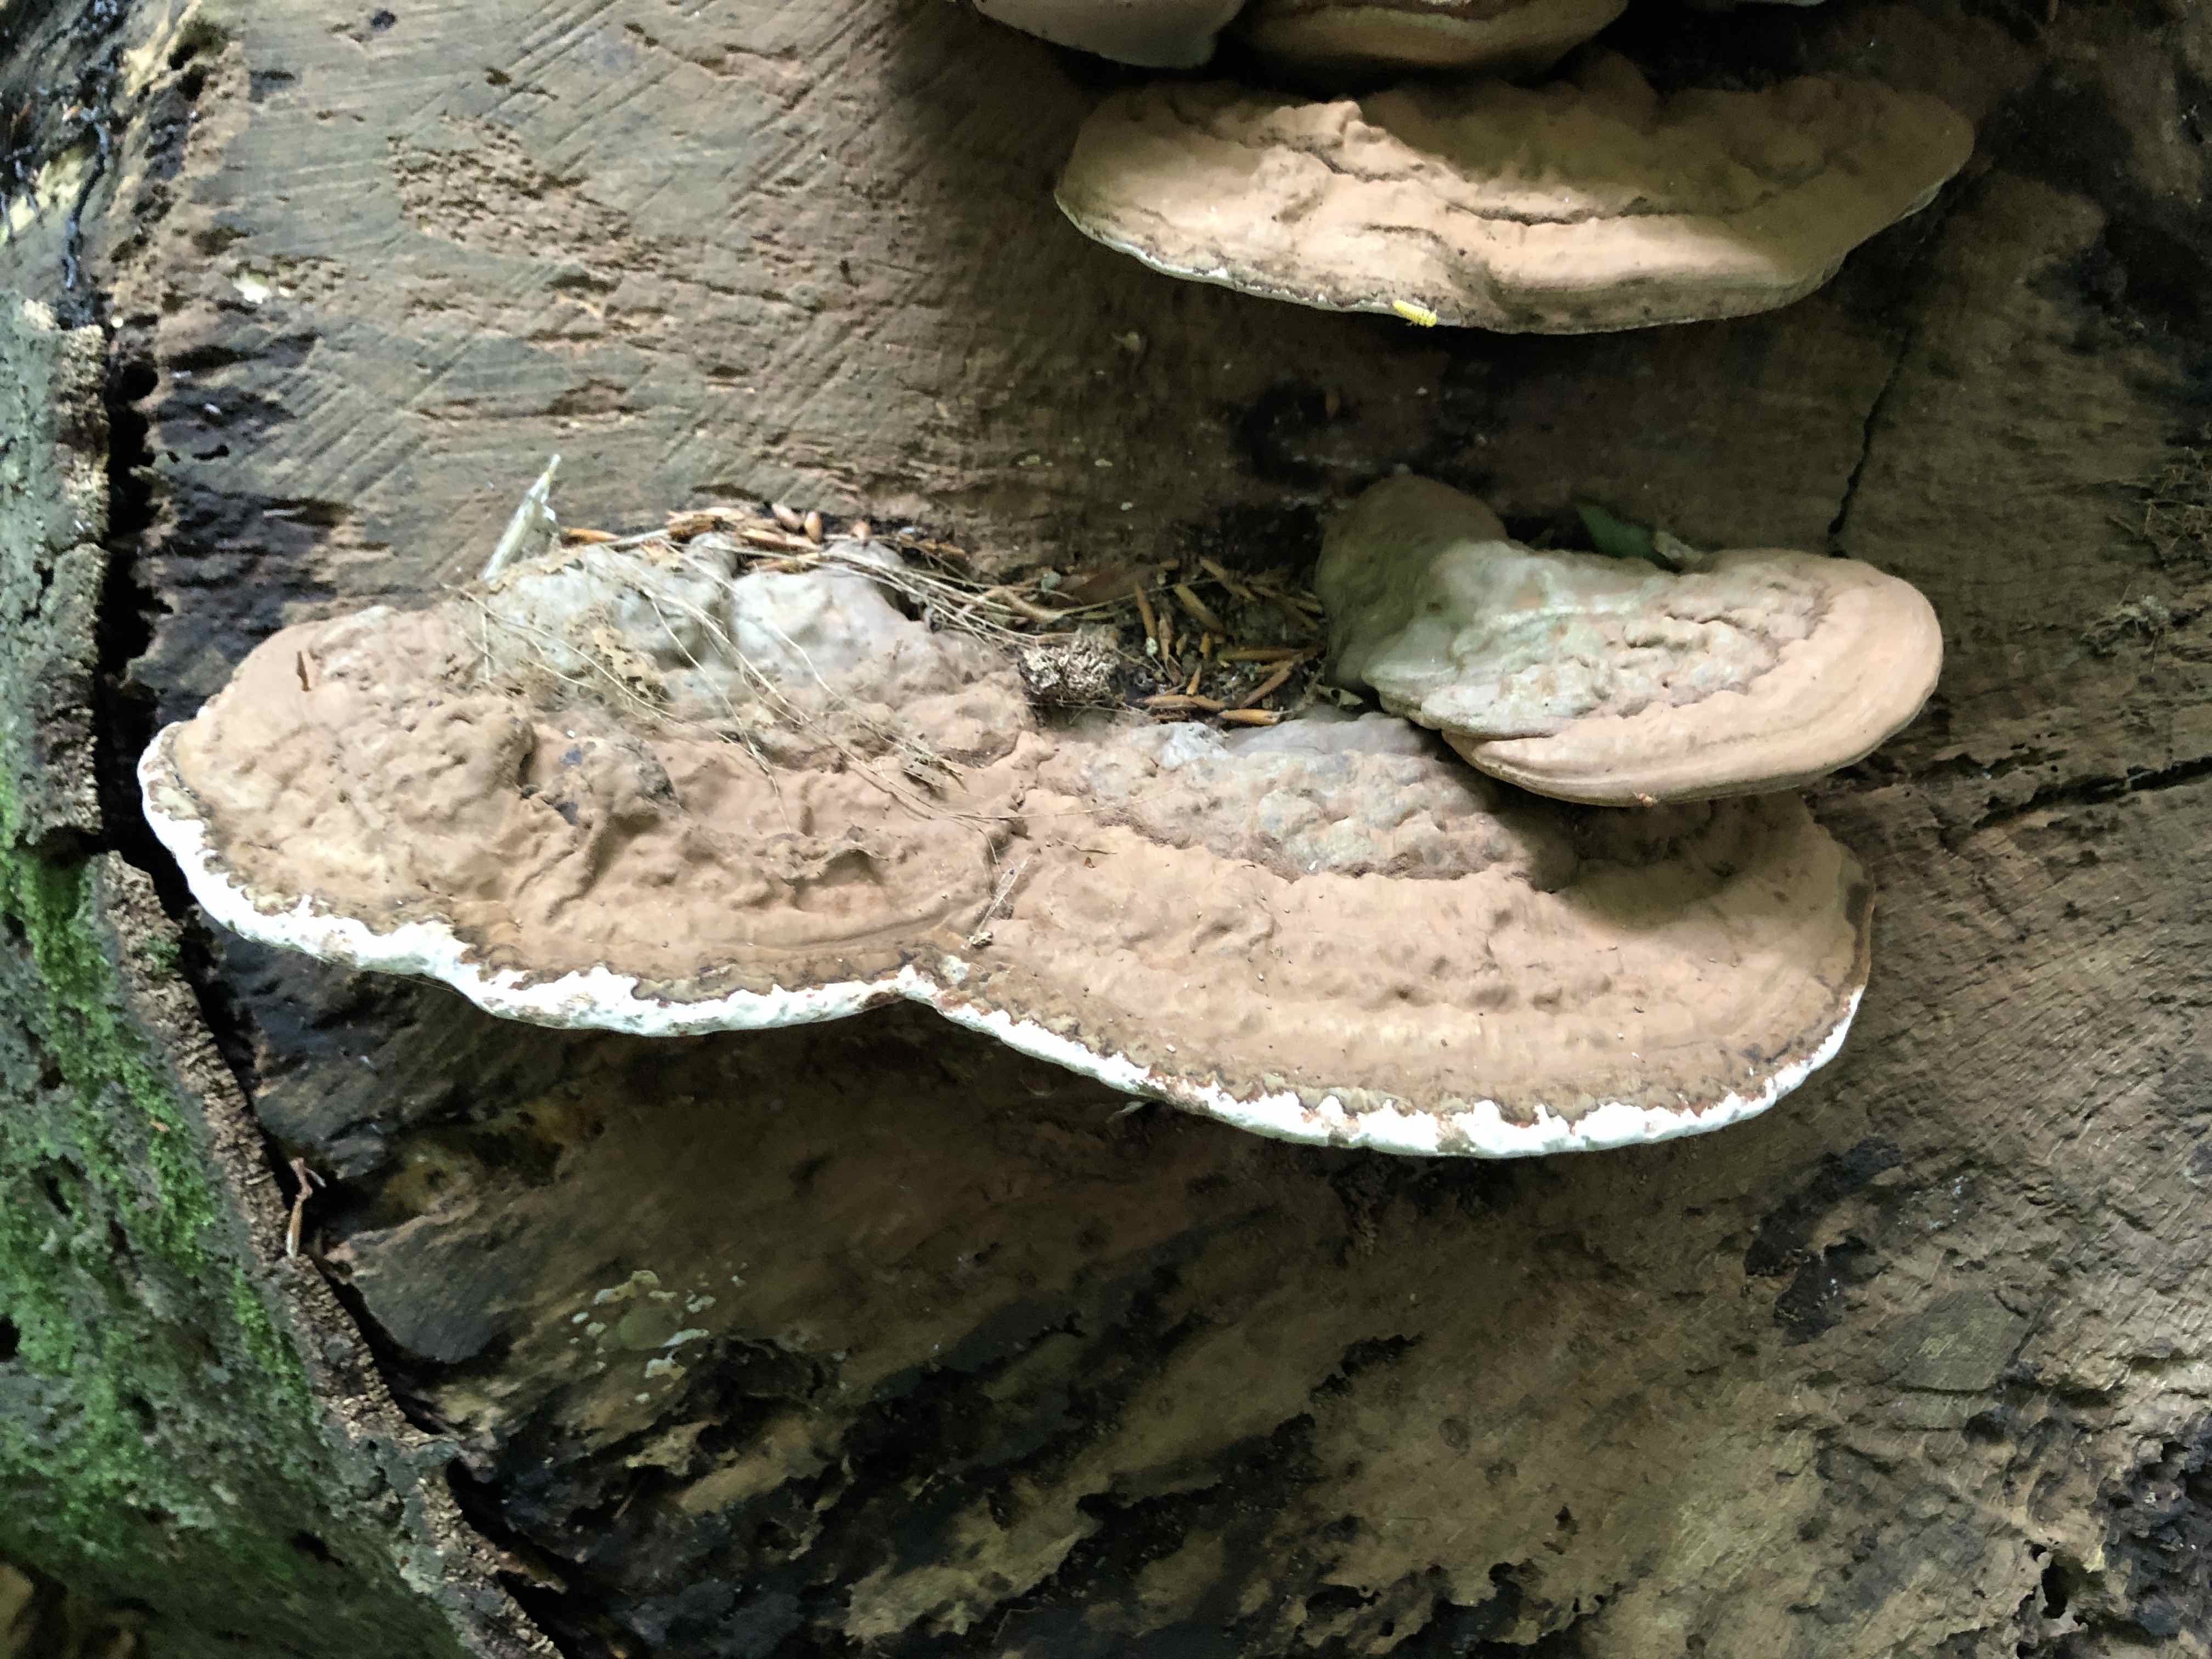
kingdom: Fungi
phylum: Basidiomycota
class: Agaricomycetes
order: Polyporales
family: Polyporaceae
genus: Ganoderma
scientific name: Ganoderma applanatum
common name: flad lakporesvamp
